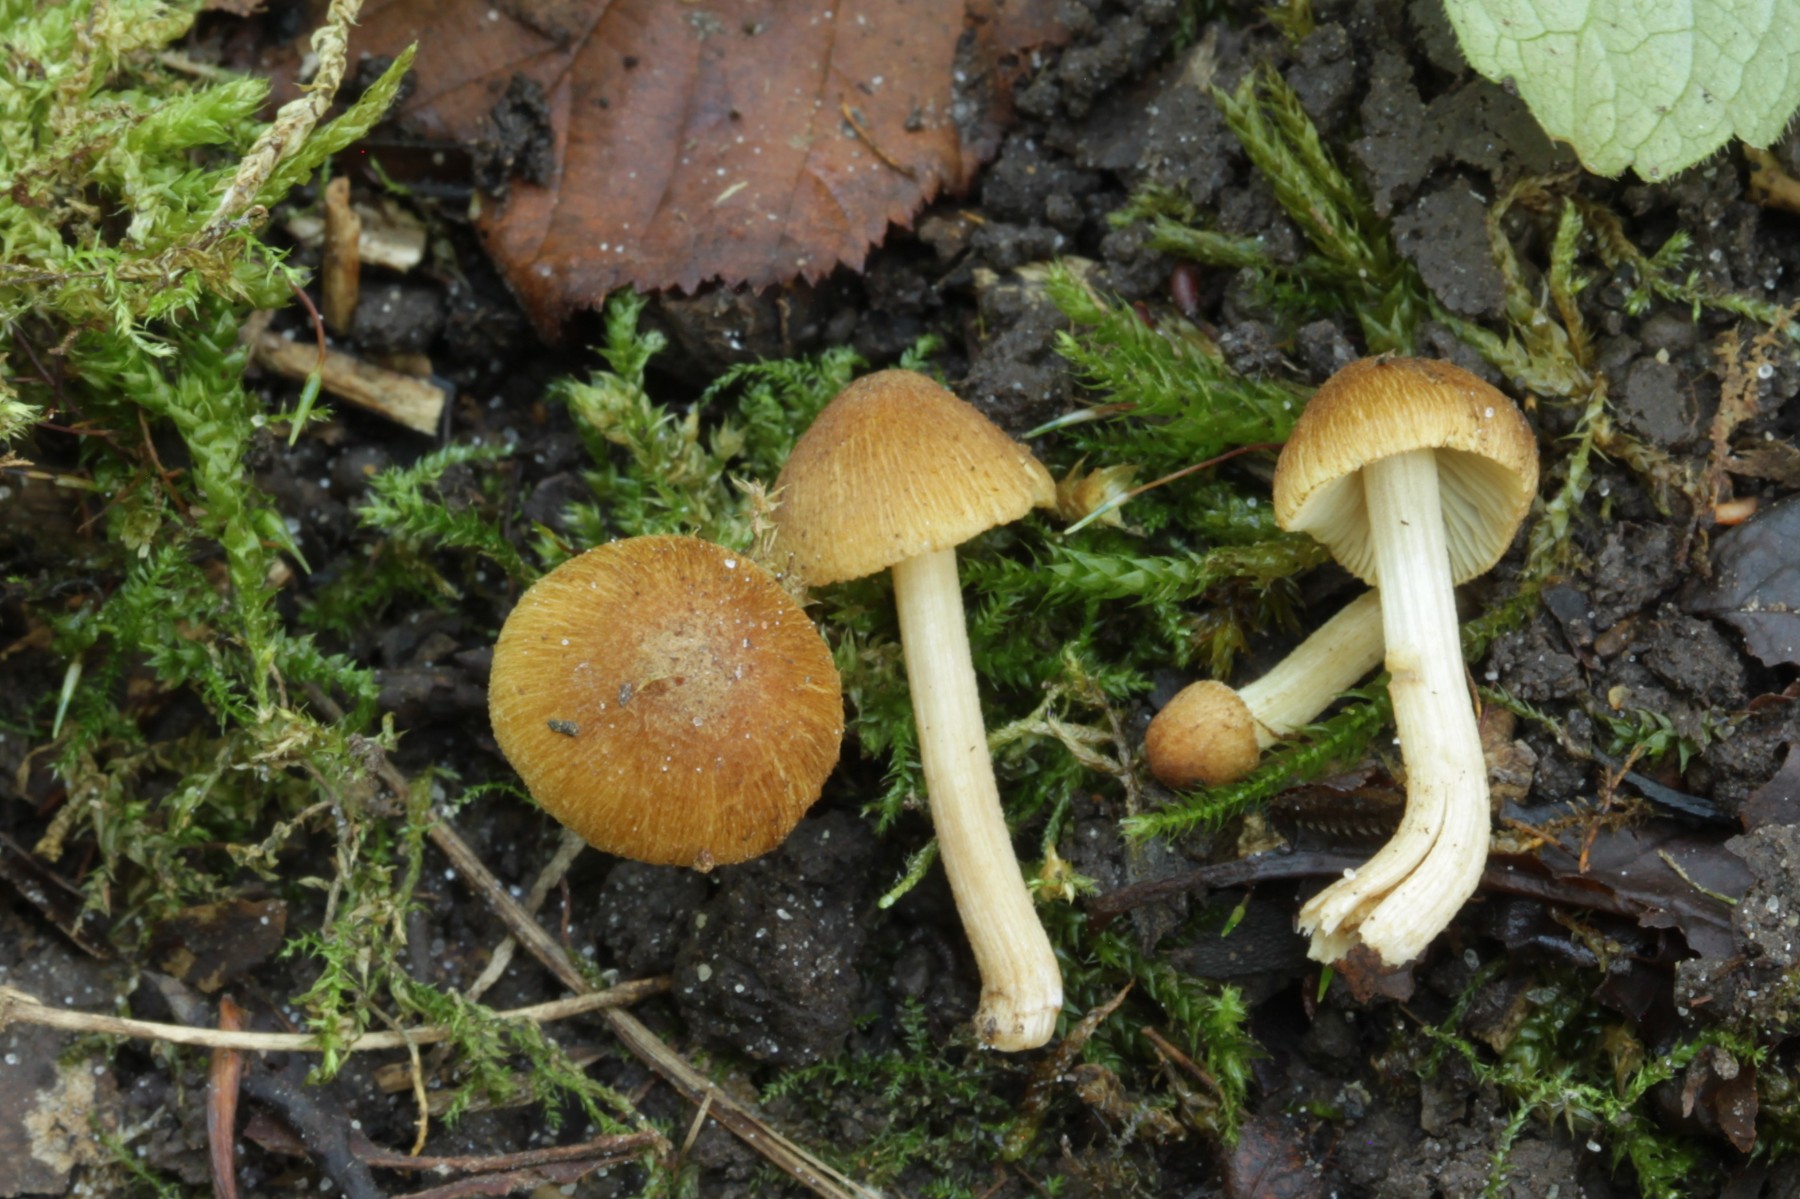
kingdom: Fungi
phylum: Basidiomycota
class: Agaricomycetes
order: Agaricales
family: Inocybaceae
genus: Inocybe
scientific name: Inocybe pholiotinoides
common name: dansende trævlhat
